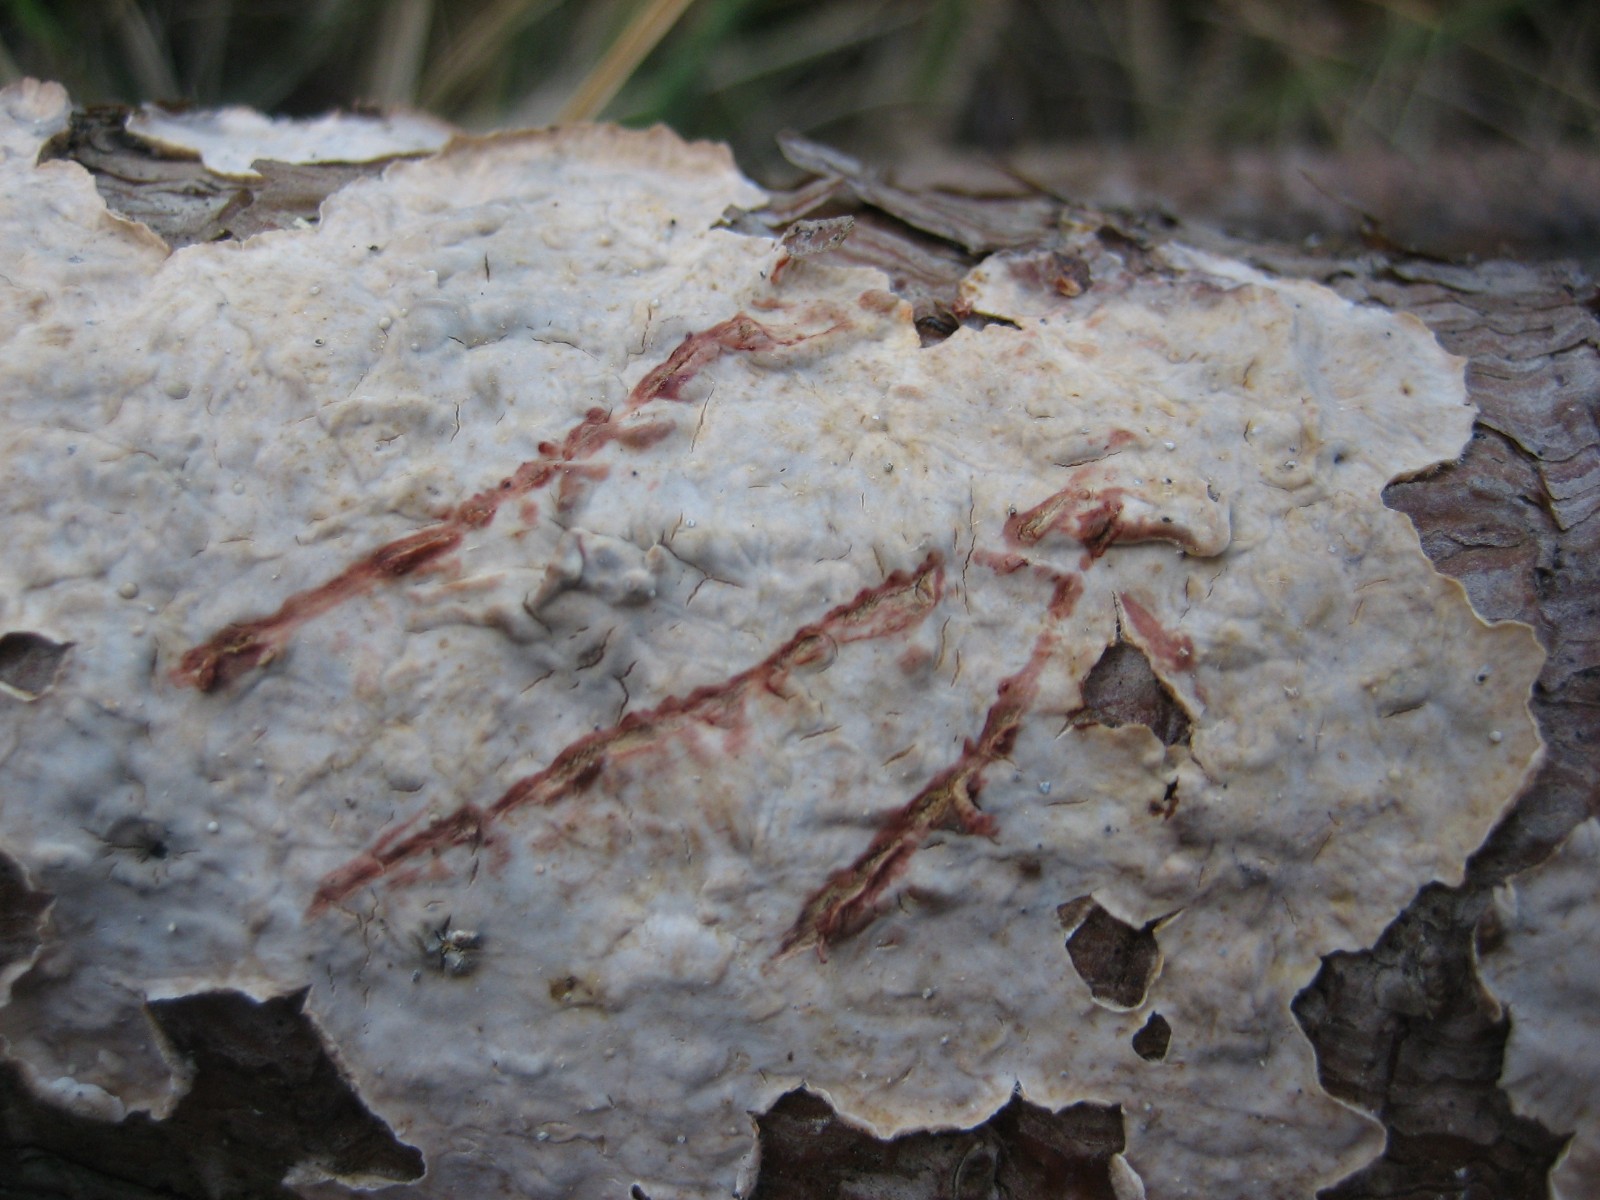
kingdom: Fungi
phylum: Basidiomycota
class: Agaricomycetes
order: Russulales
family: Stereaceae
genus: Stereum
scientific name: Stereum sanguinolentum
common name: blødende lædersvamp
